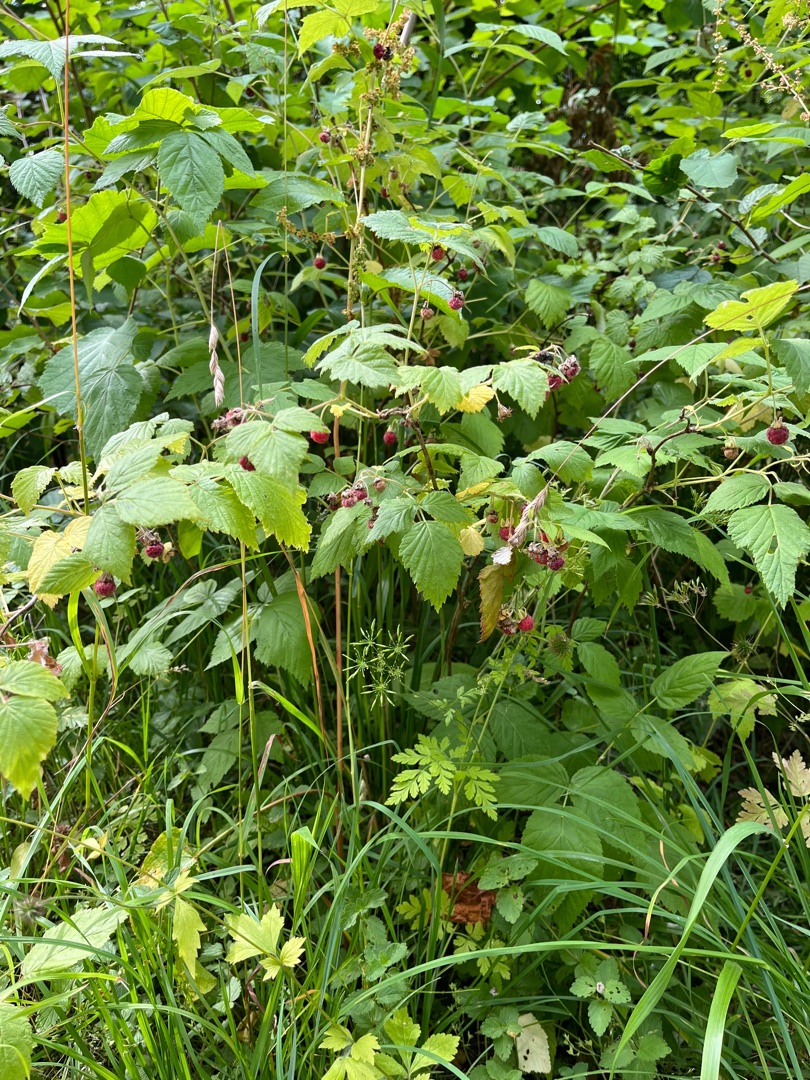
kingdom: Plantae
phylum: Tracheophyta
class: Magnoliopsida
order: Rosales
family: Rosaceae
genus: Rubus
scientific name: Rubus idaeus
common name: Hindbær
